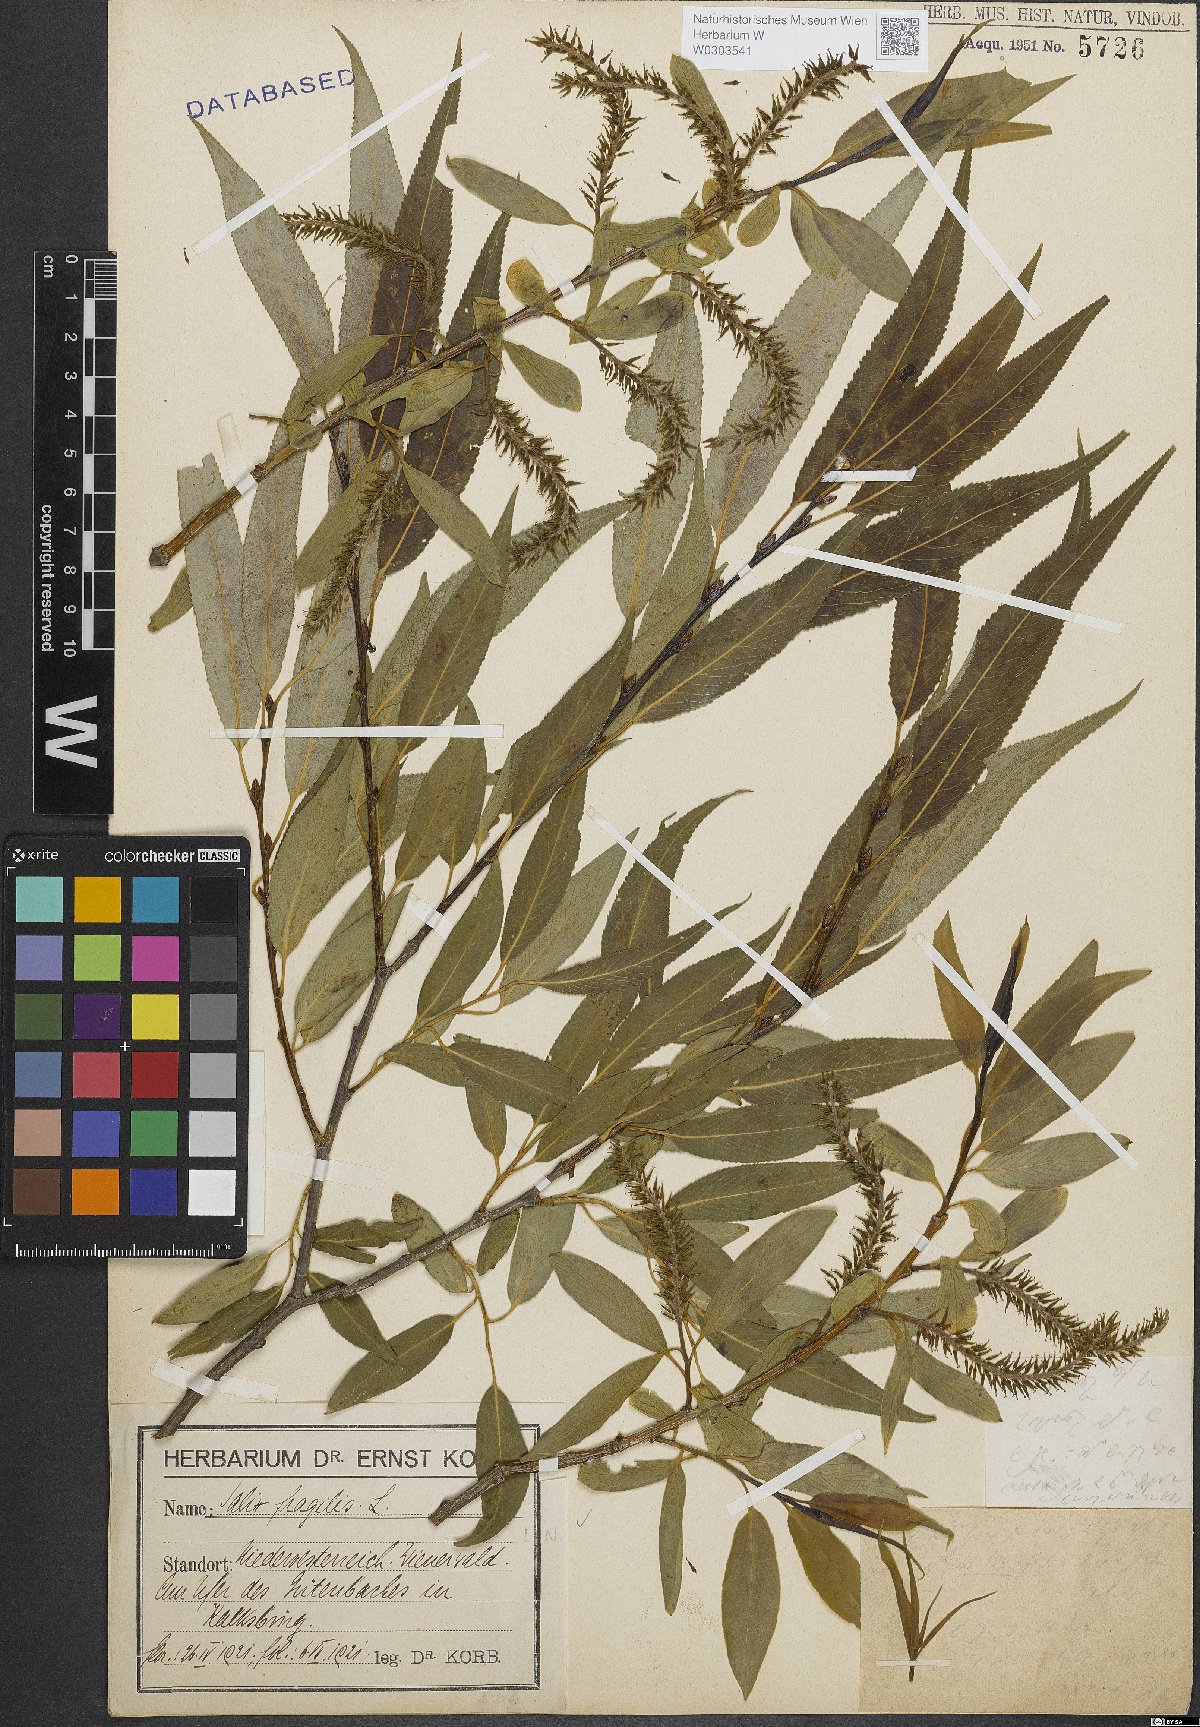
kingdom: Plantae
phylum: Tracheophyta
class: Magnoliopsida
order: Malpighiales
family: Salicaceae
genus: Salix
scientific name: Salix fragilis
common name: Crack willow
